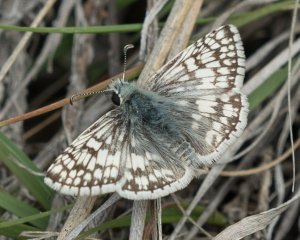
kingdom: Animalia
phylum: Arthropoda
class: Insecta
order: Lepidoptera
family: Hesperiidae
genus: Pyrgus
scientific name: Pyrgus communis
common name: Common Checkered-Skipper
